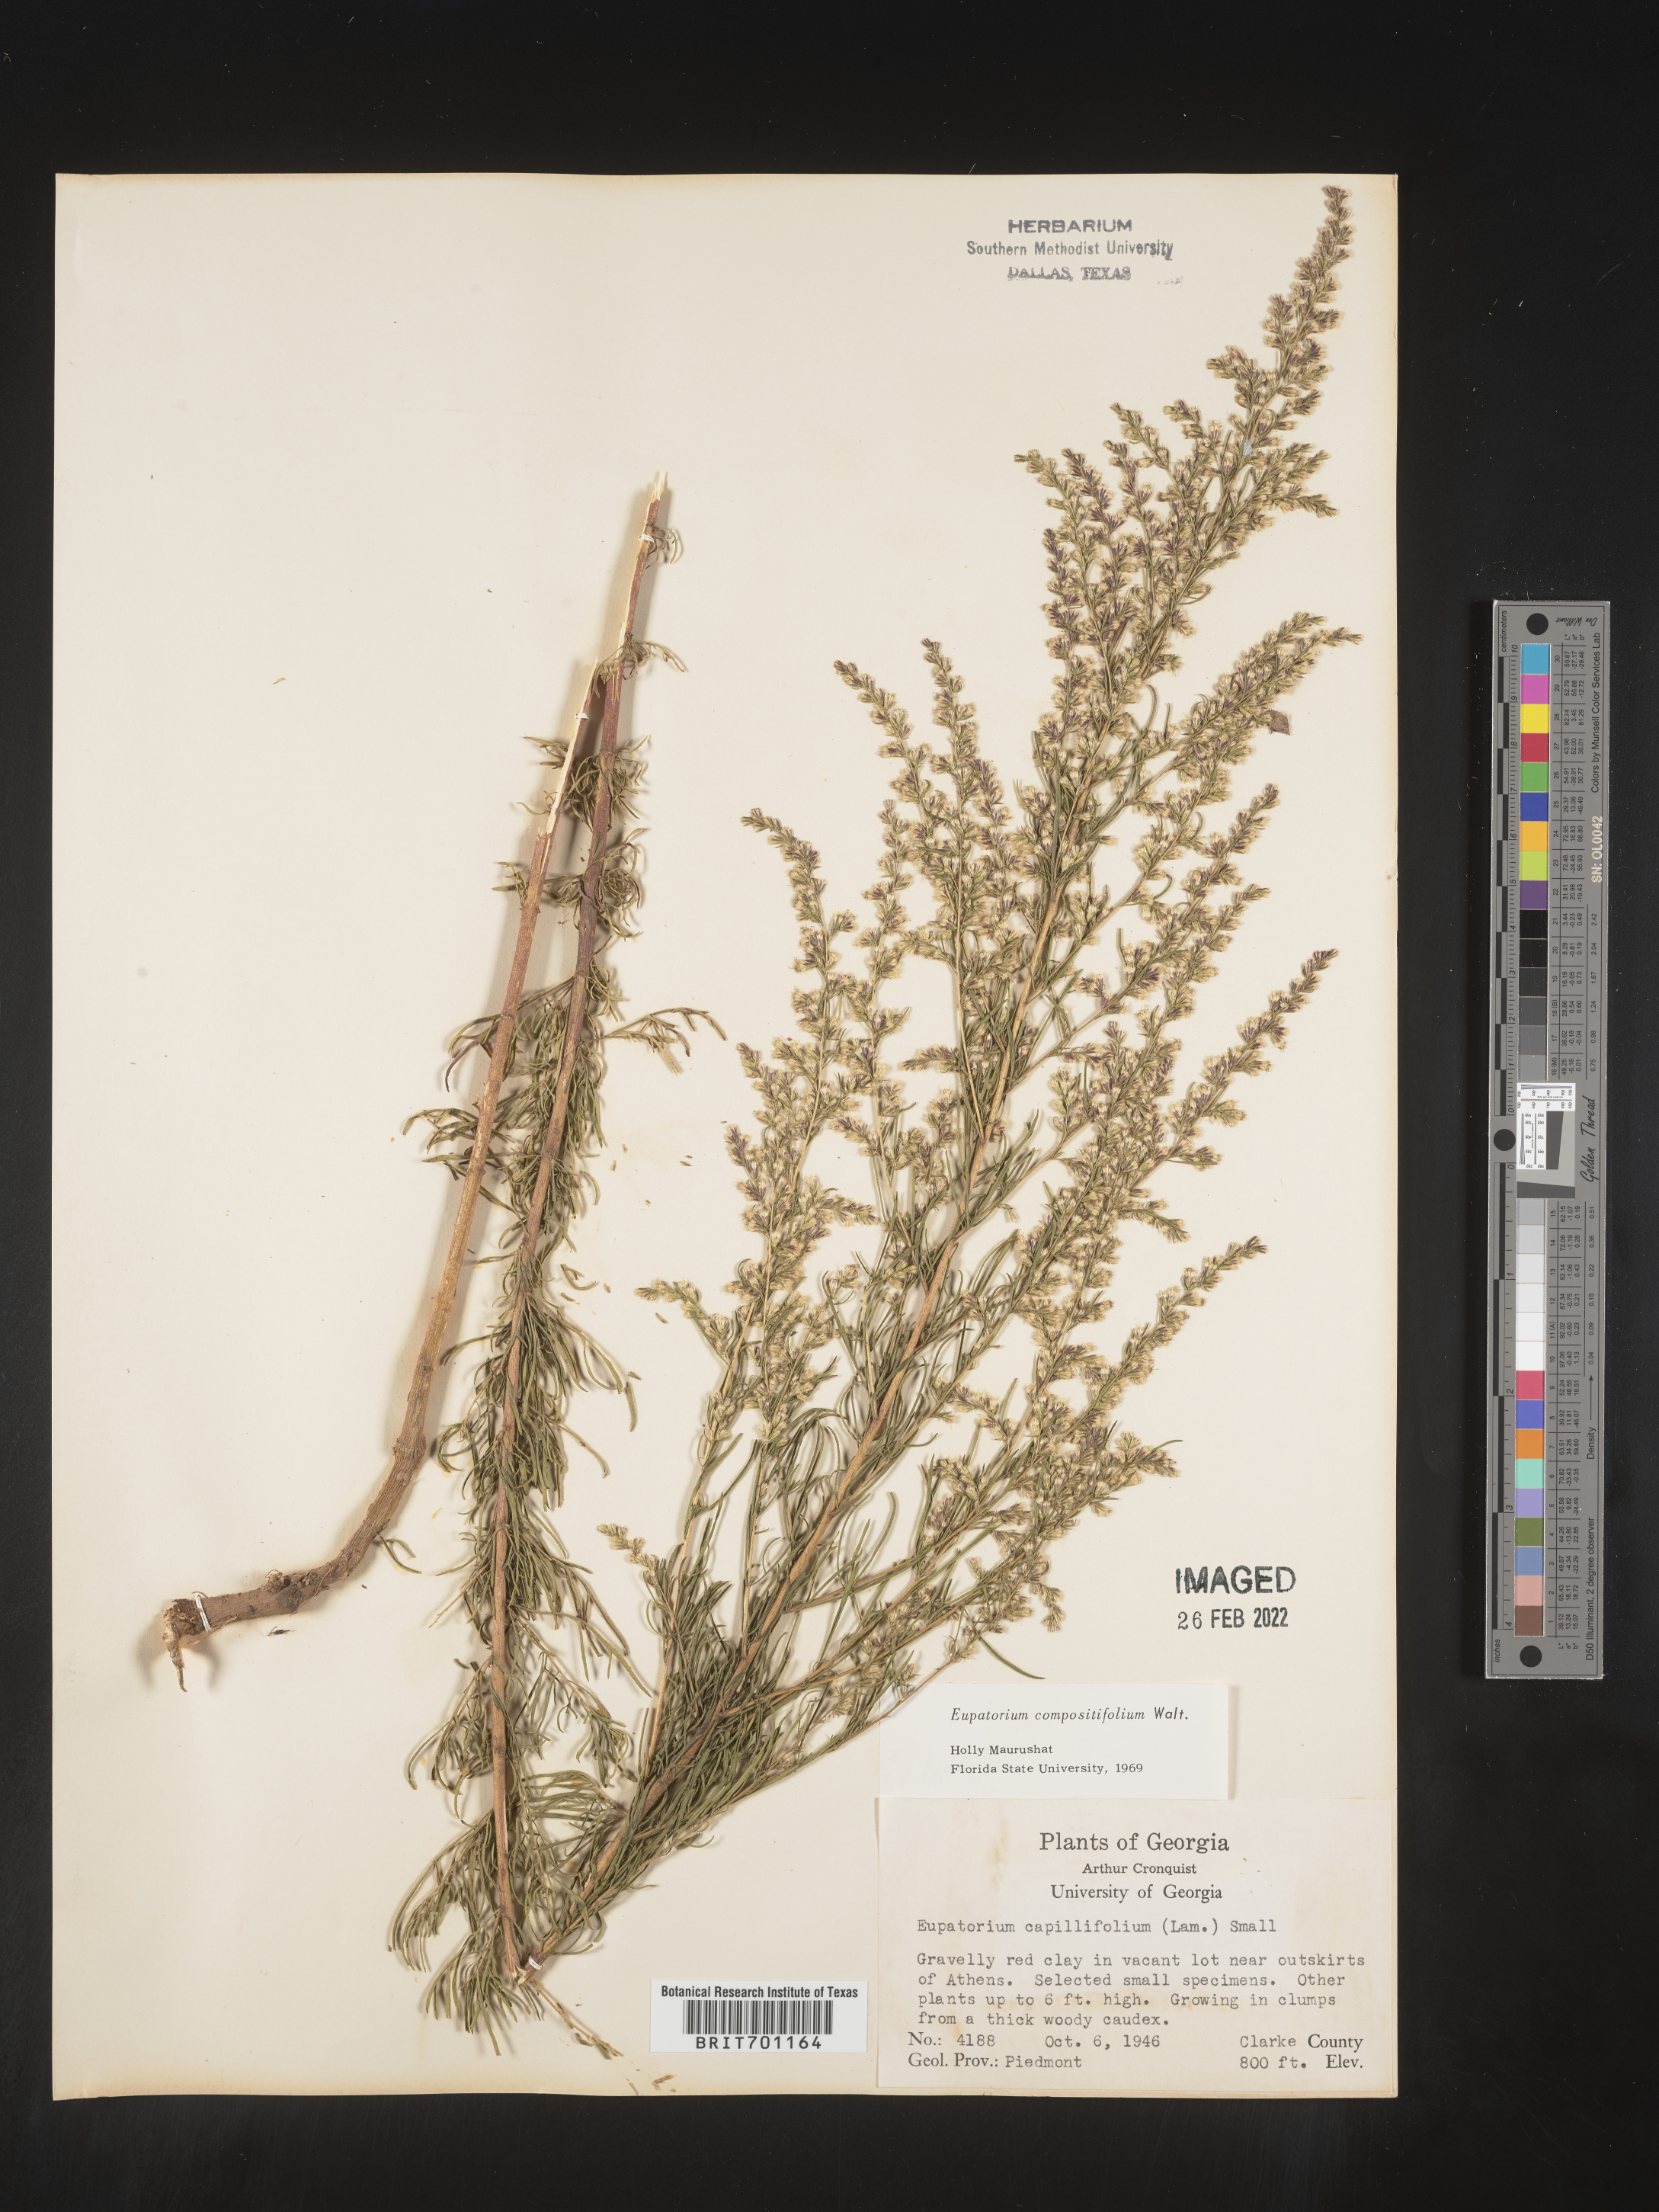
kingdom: Plantae
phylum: Tracheophyta
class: Magnoliopsida
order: Asterales
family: Asteraceae
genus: Eupatorium
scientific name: Eupatorium compositifolium
